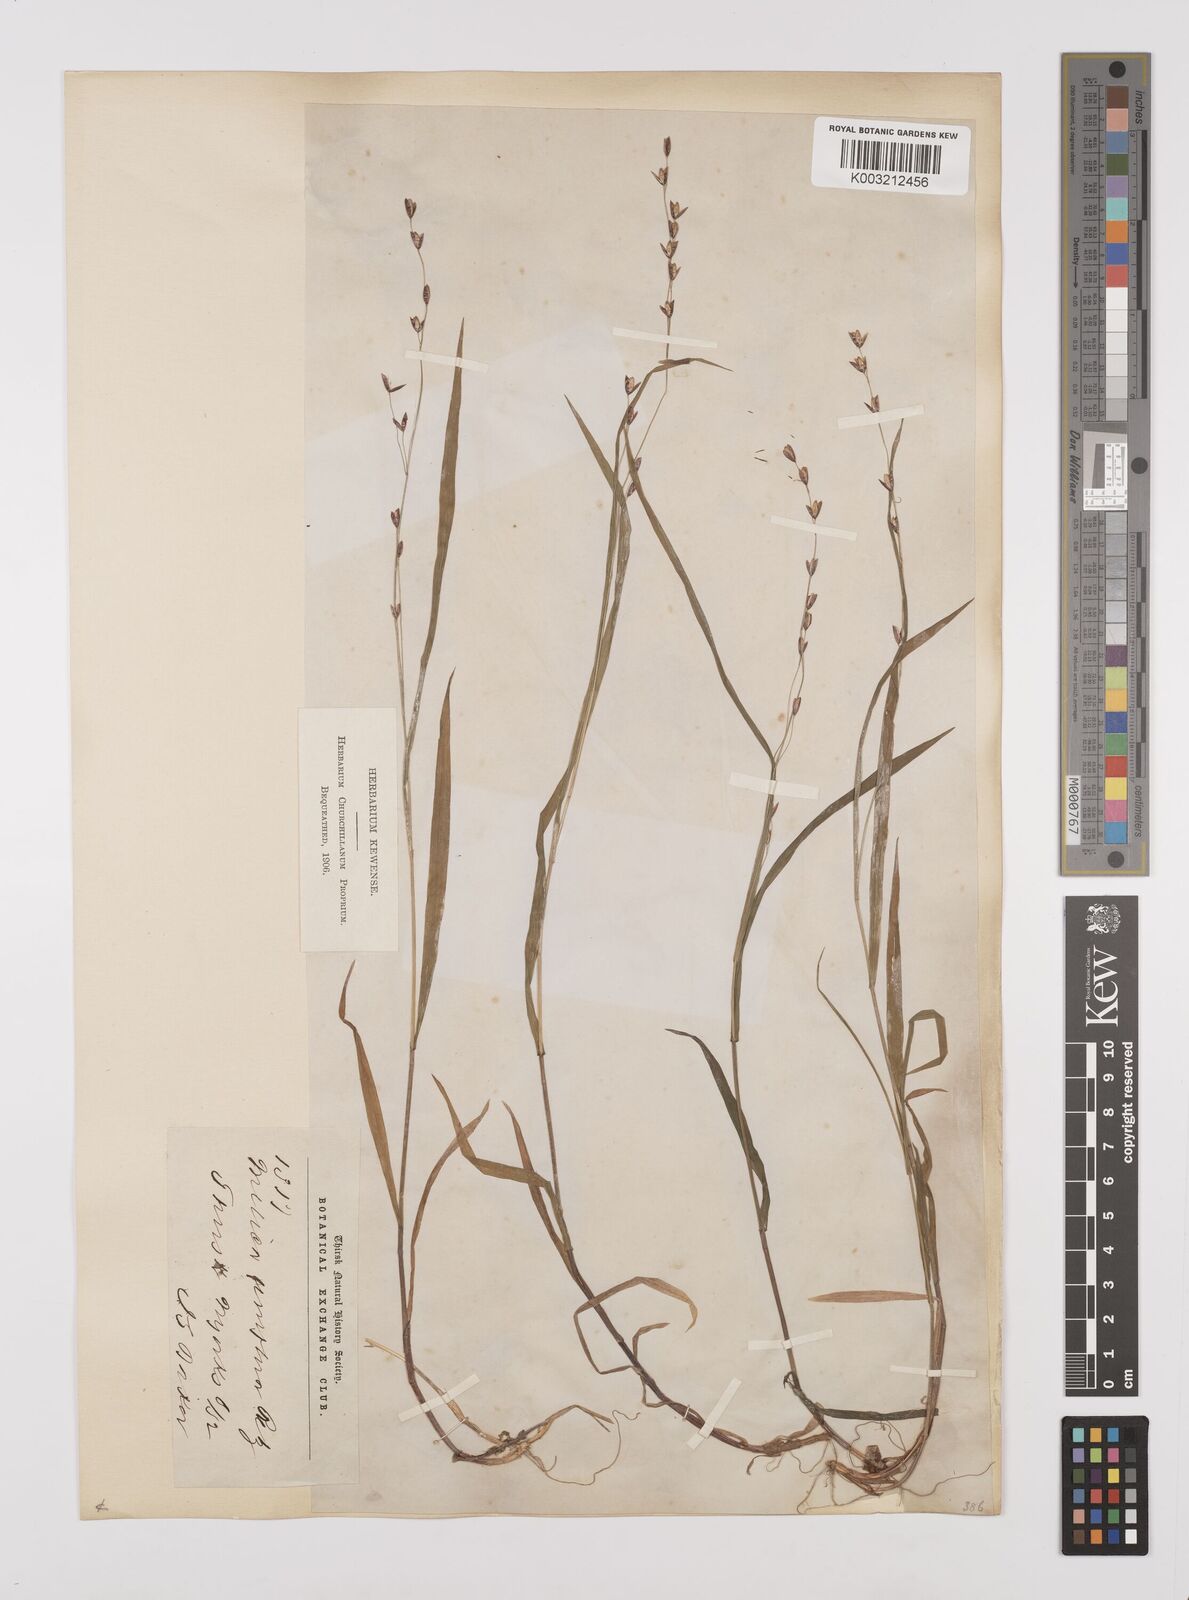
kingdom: Plantae
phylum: Tracheophyta
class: Liliopsida
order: Poales
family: Poaceae
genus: Melica
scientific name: Melica uniflora
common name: Wood melick
